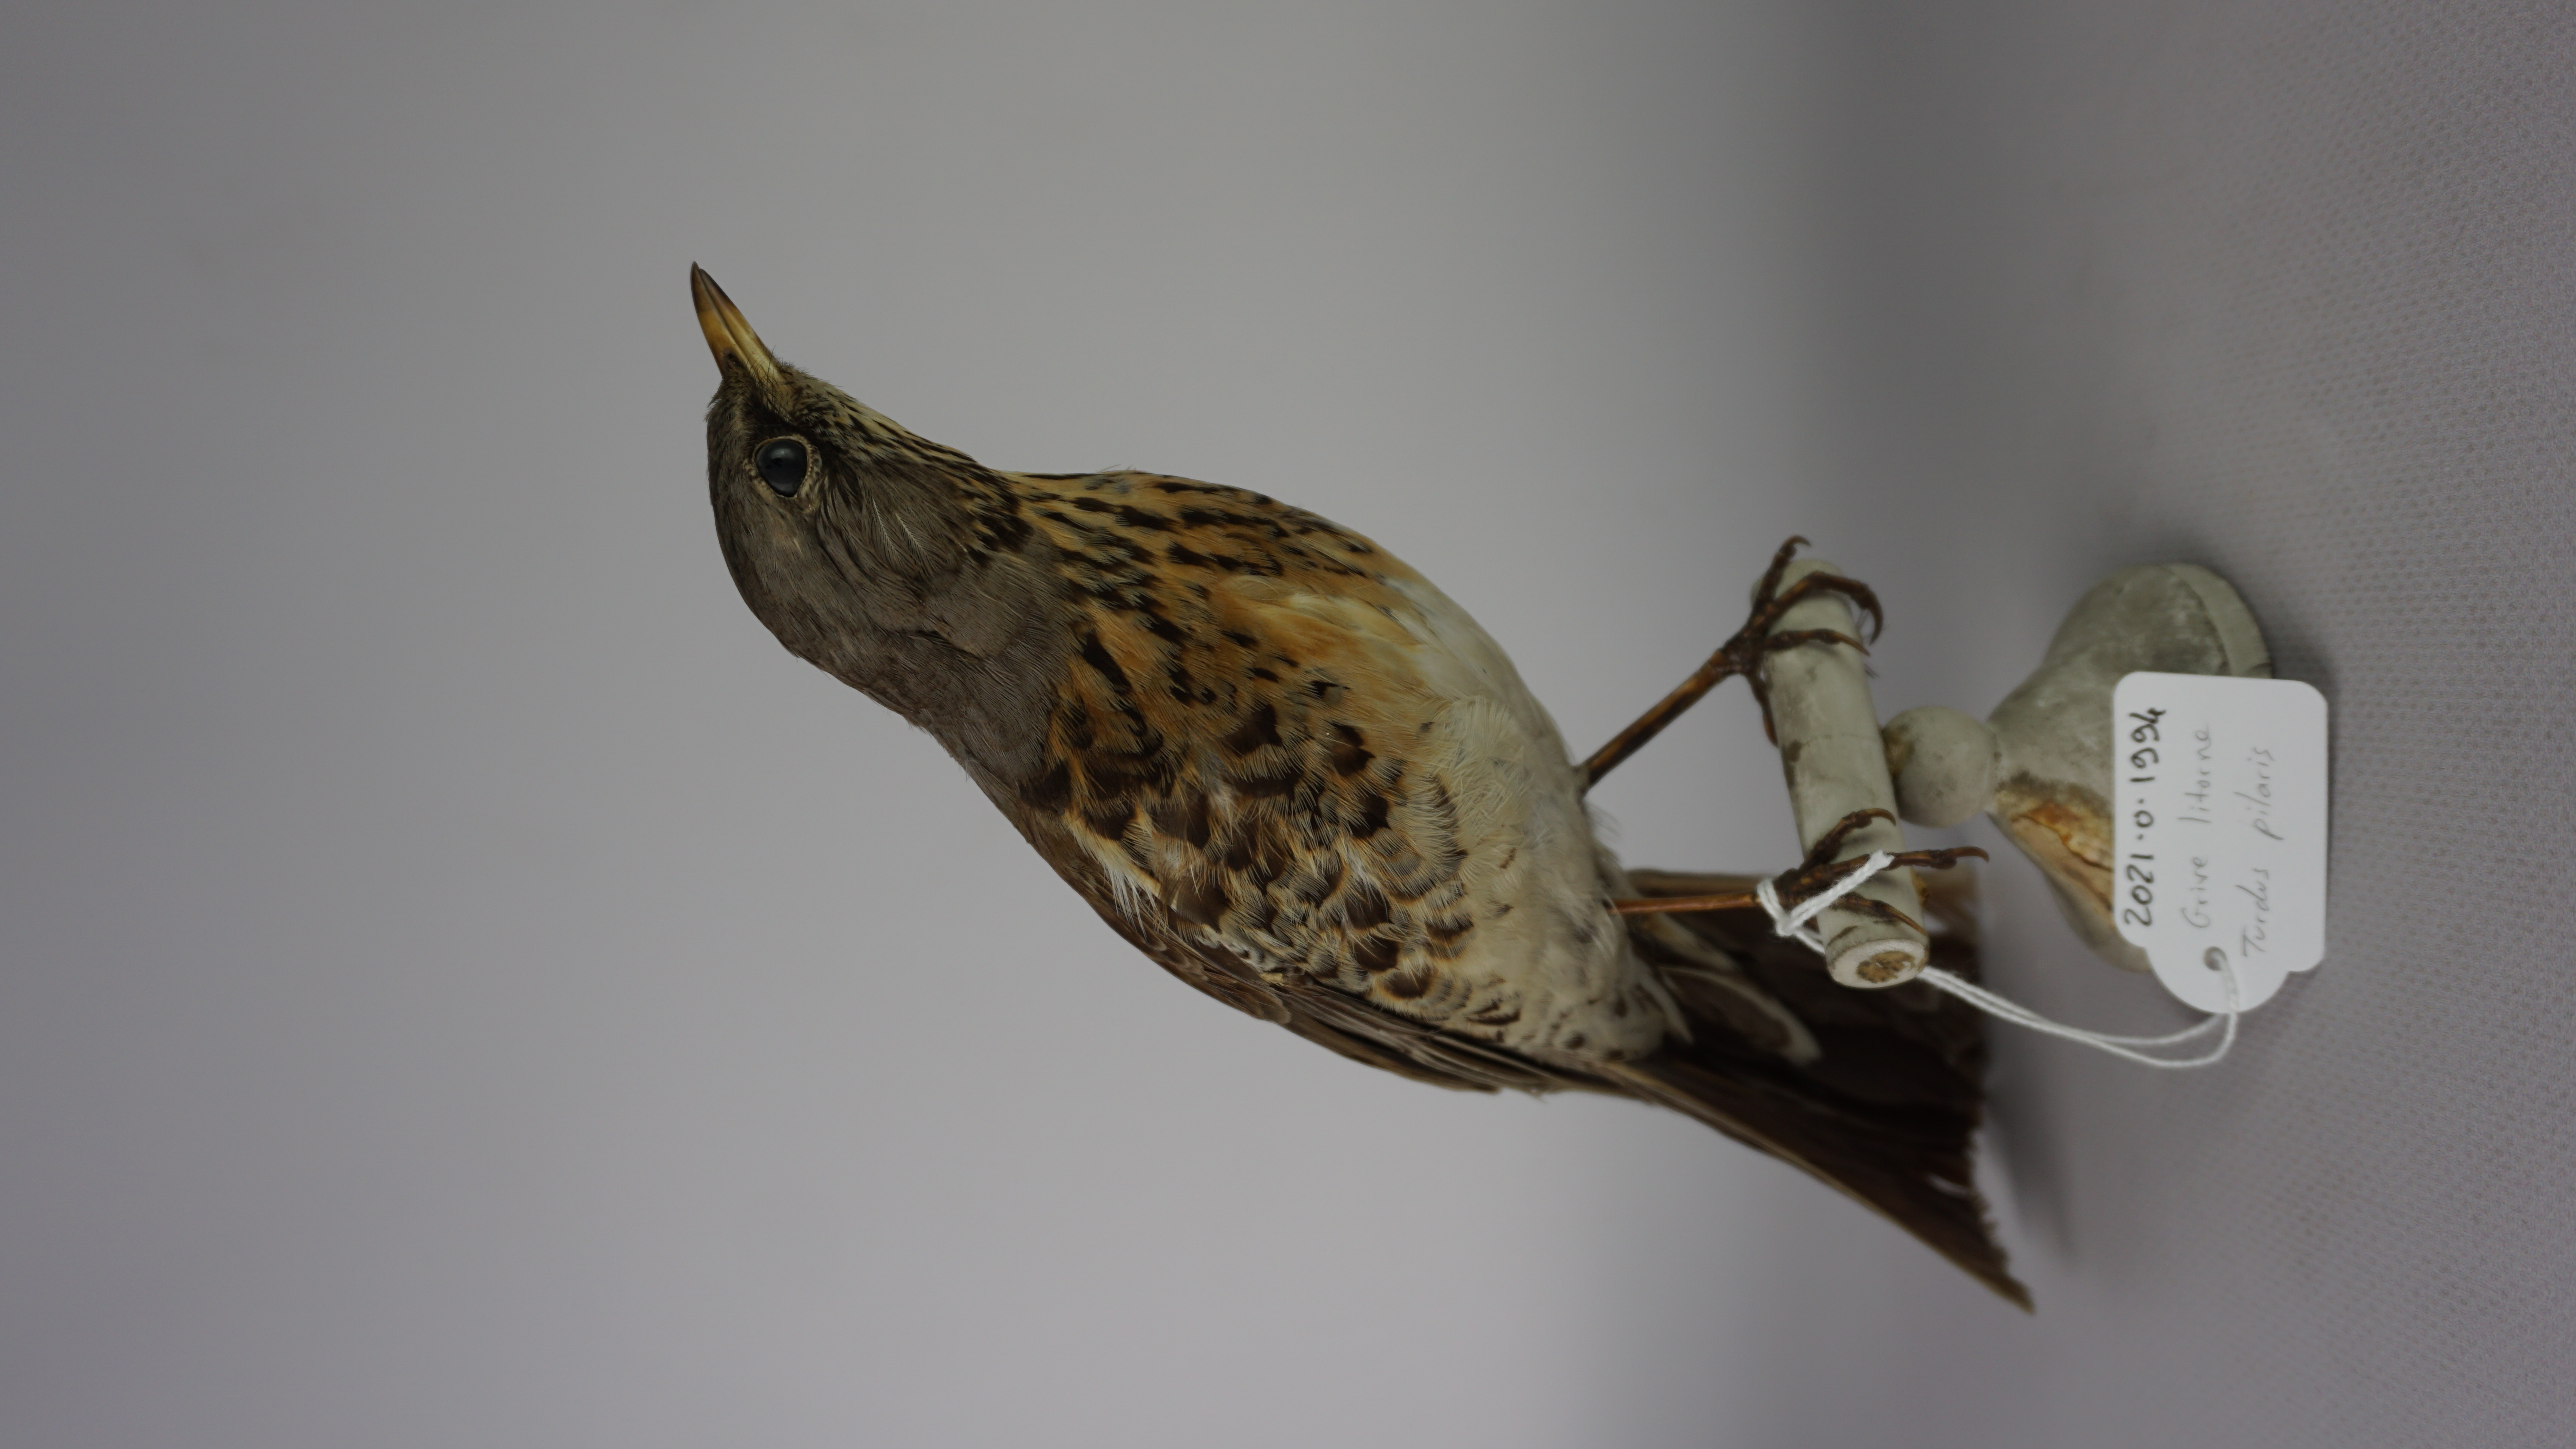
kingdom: Animalia
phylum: Chordata
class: Aves
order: Passeriformes
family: Turdidae
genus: Turdus
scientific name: Turdus pilaris
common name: Fieldfare
